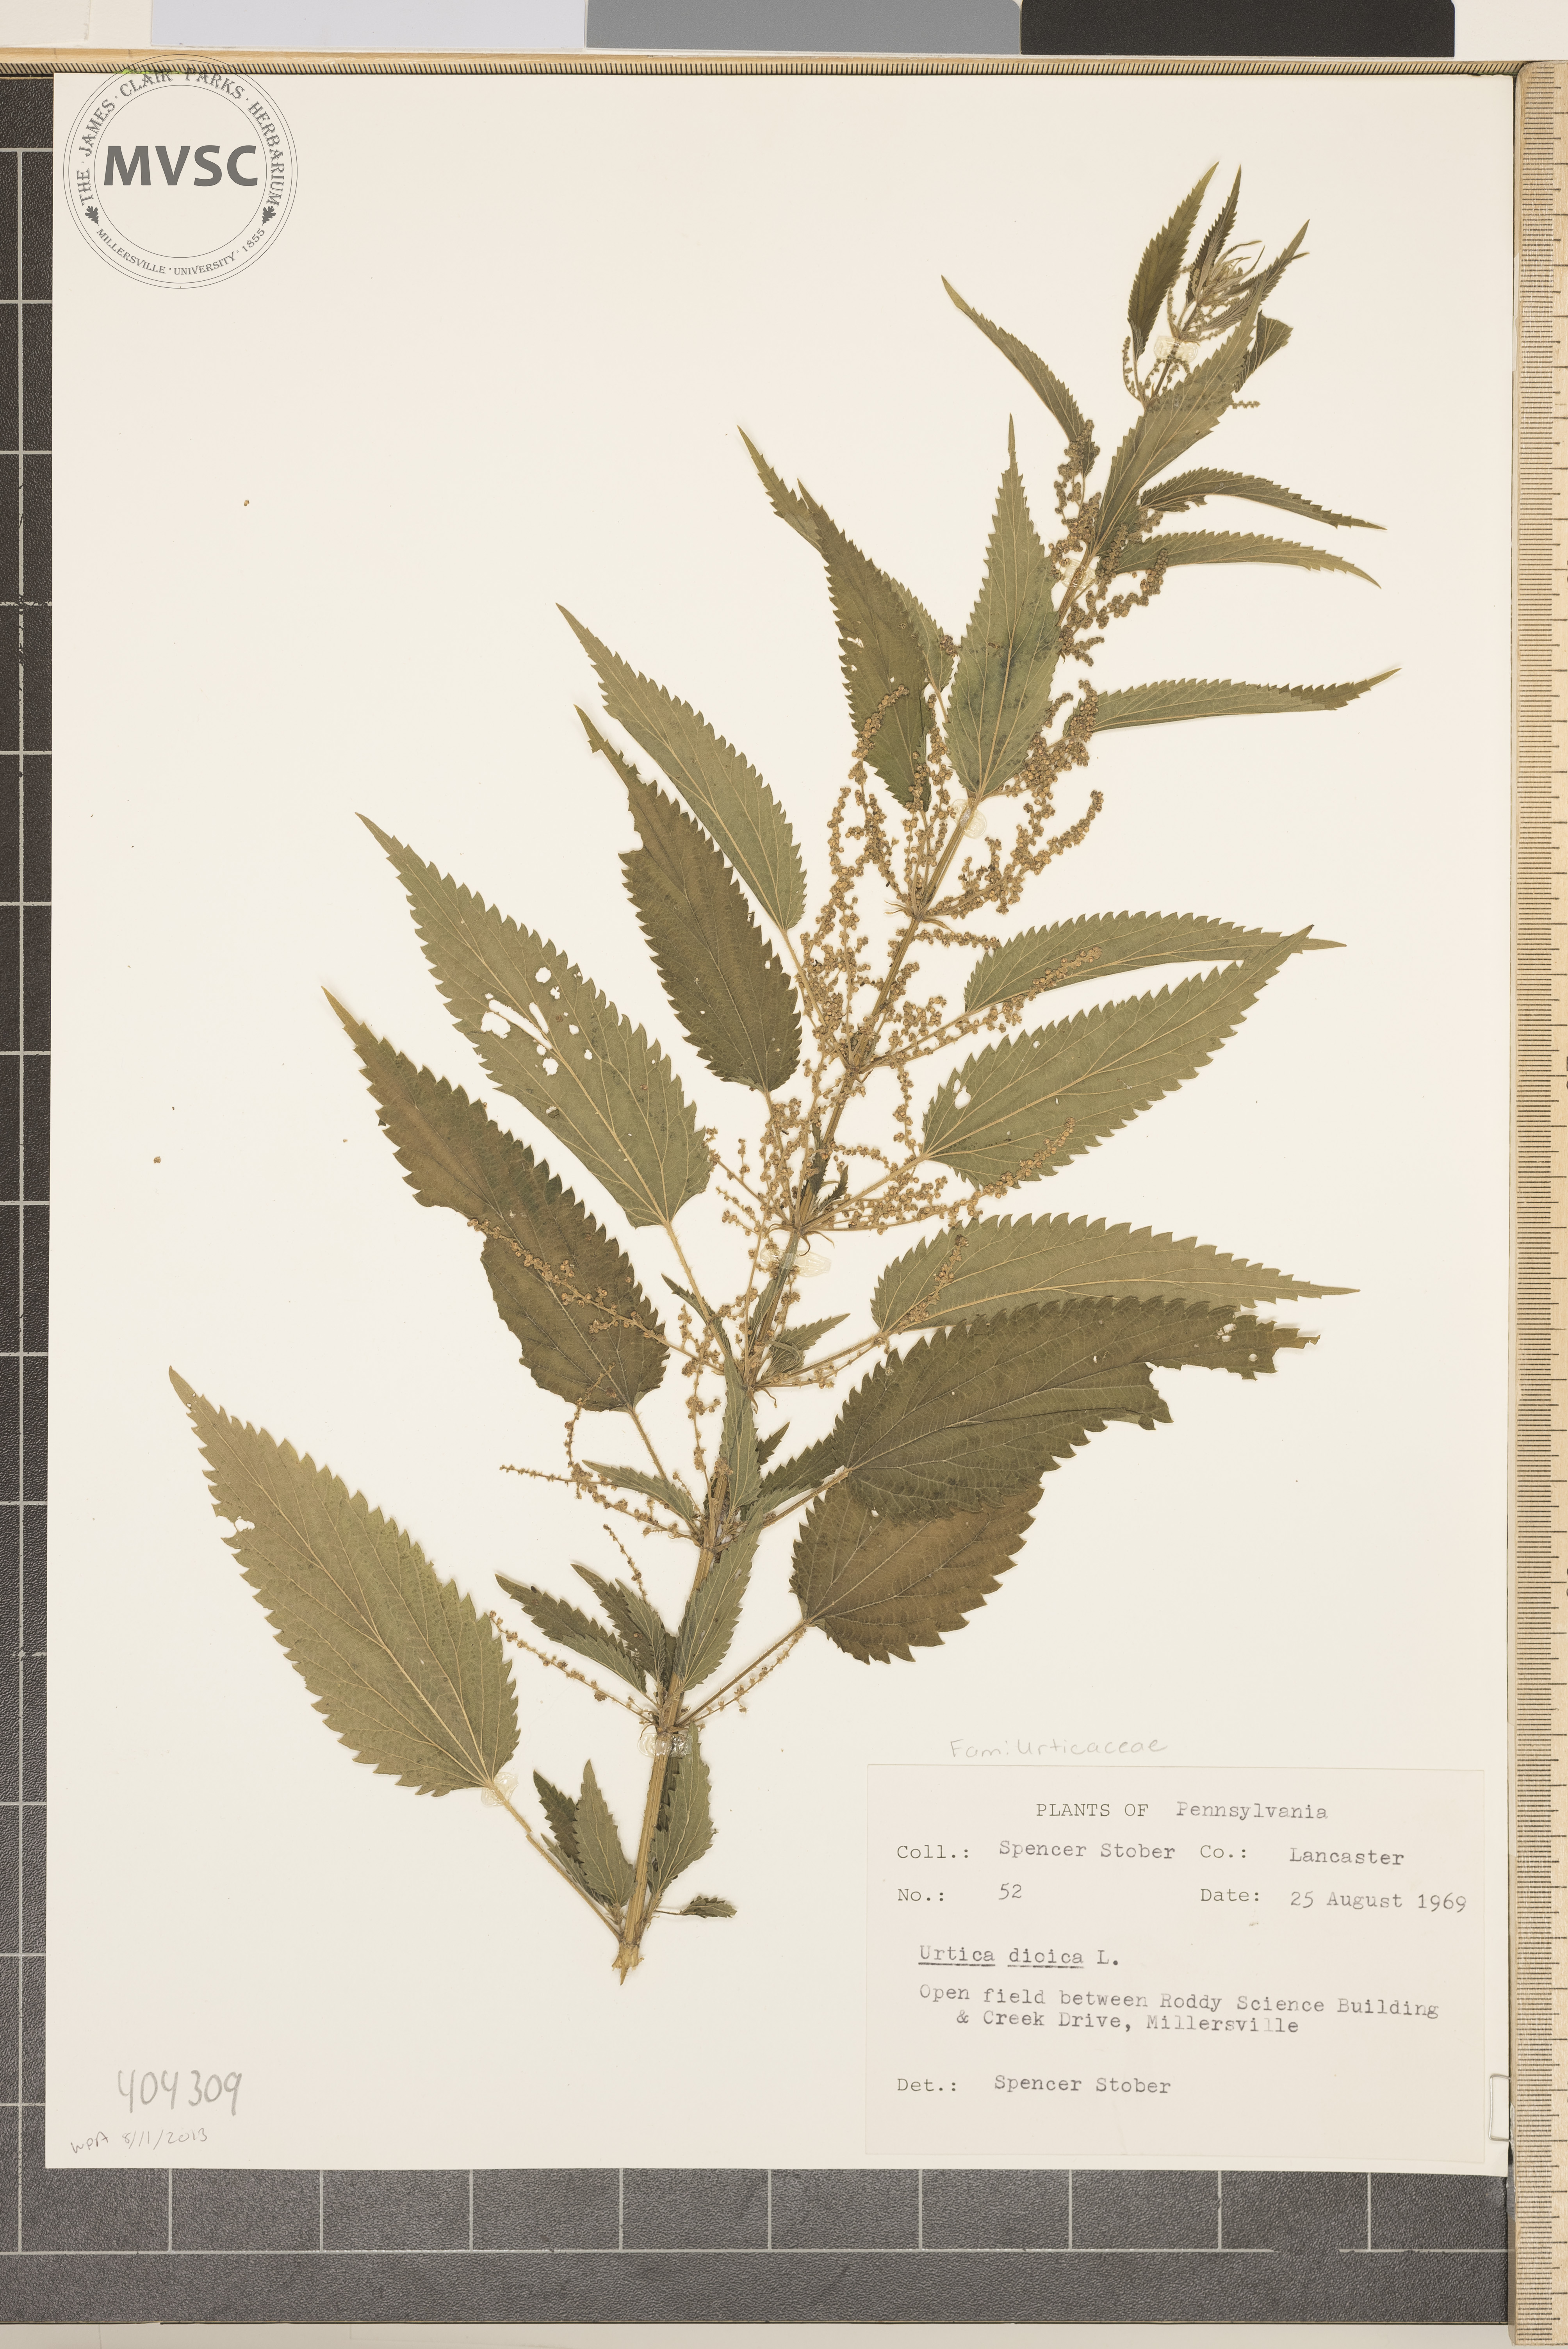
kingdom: Plantae
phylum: Tracheophyta
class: Magnoliopsida
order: Rosales
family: Urticaceae
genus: Urtica
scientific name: Urtica dioica
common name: Common nettle
